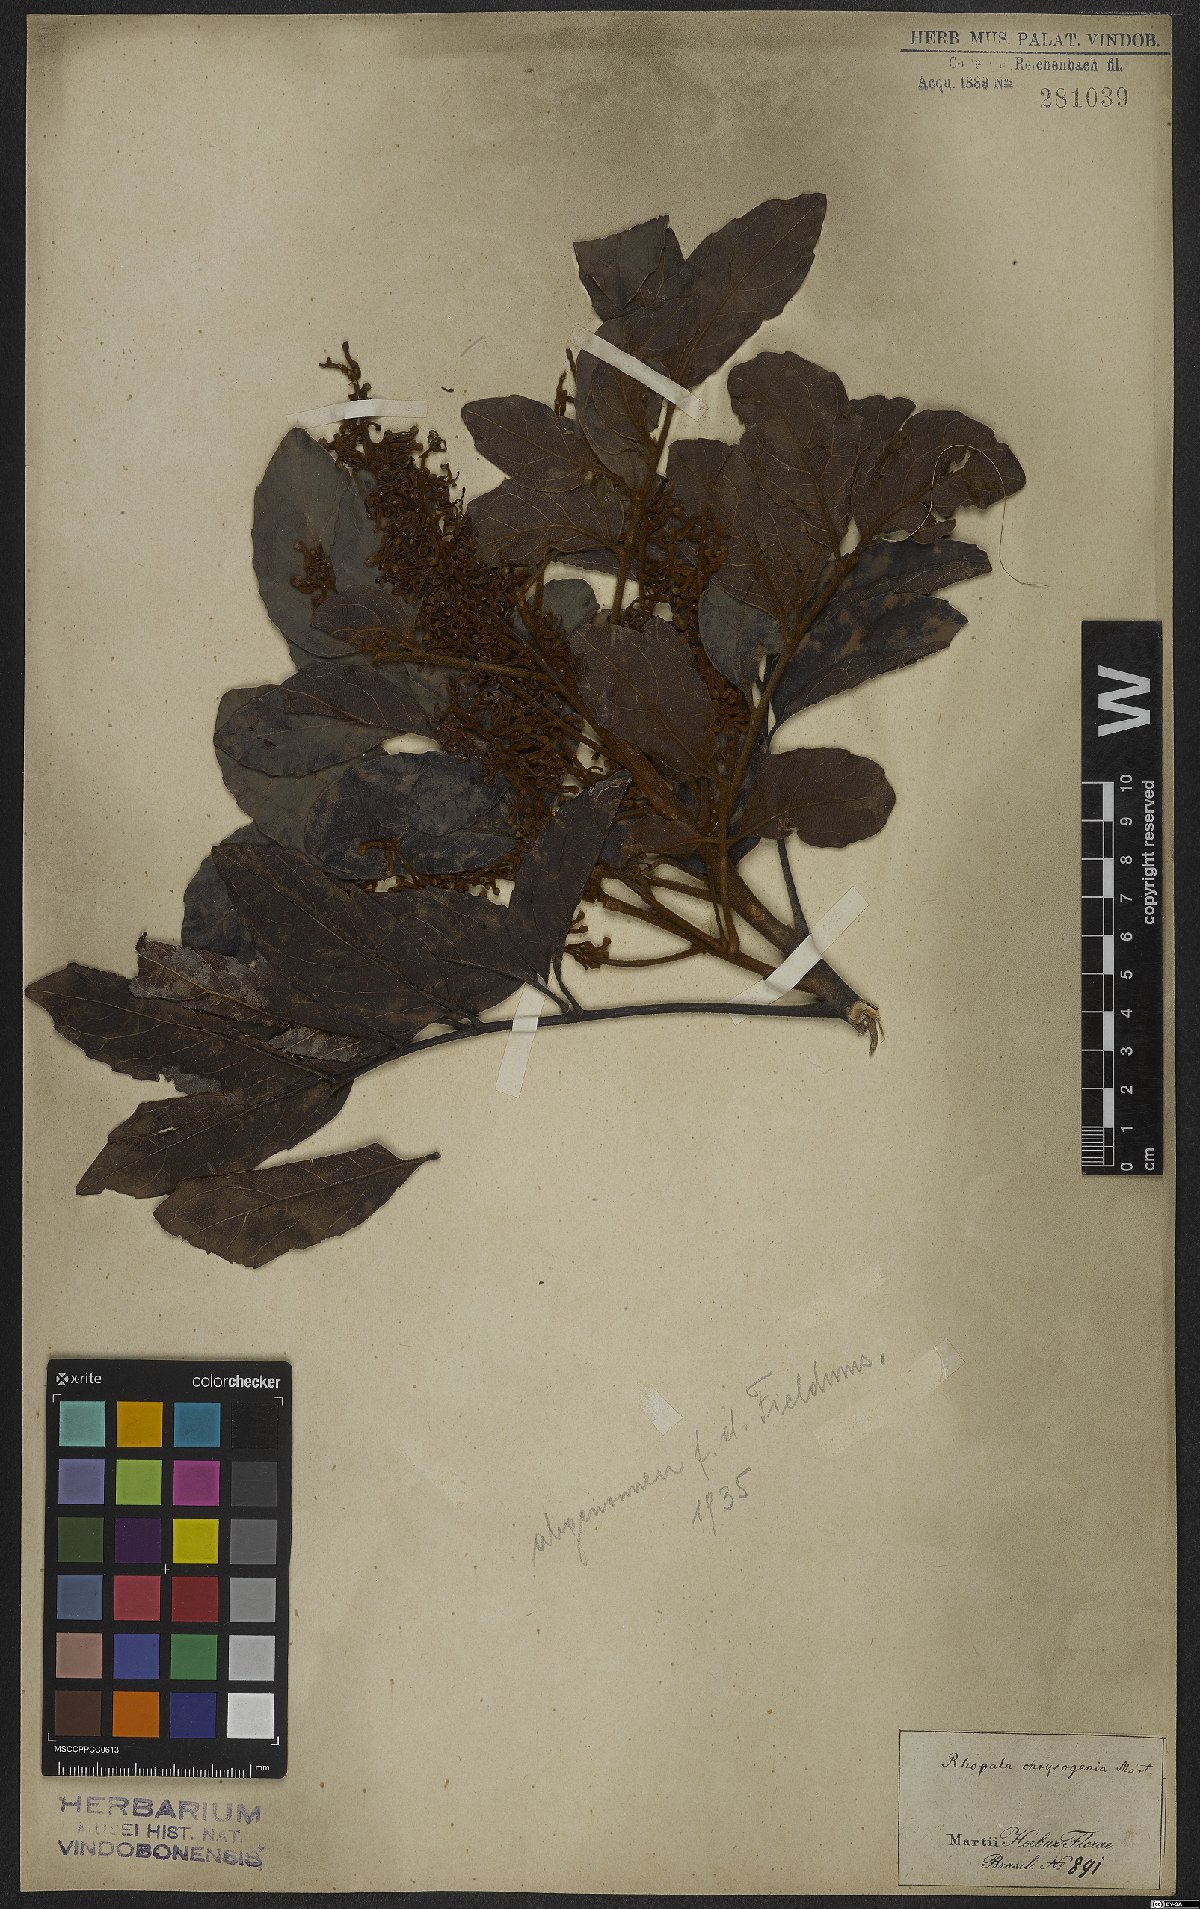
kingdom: Plantae
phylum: Tracheophyta
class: Magnoliopsida
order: Proteales
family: Proteaceae
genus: Euplassa
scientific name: Euplassa incana
